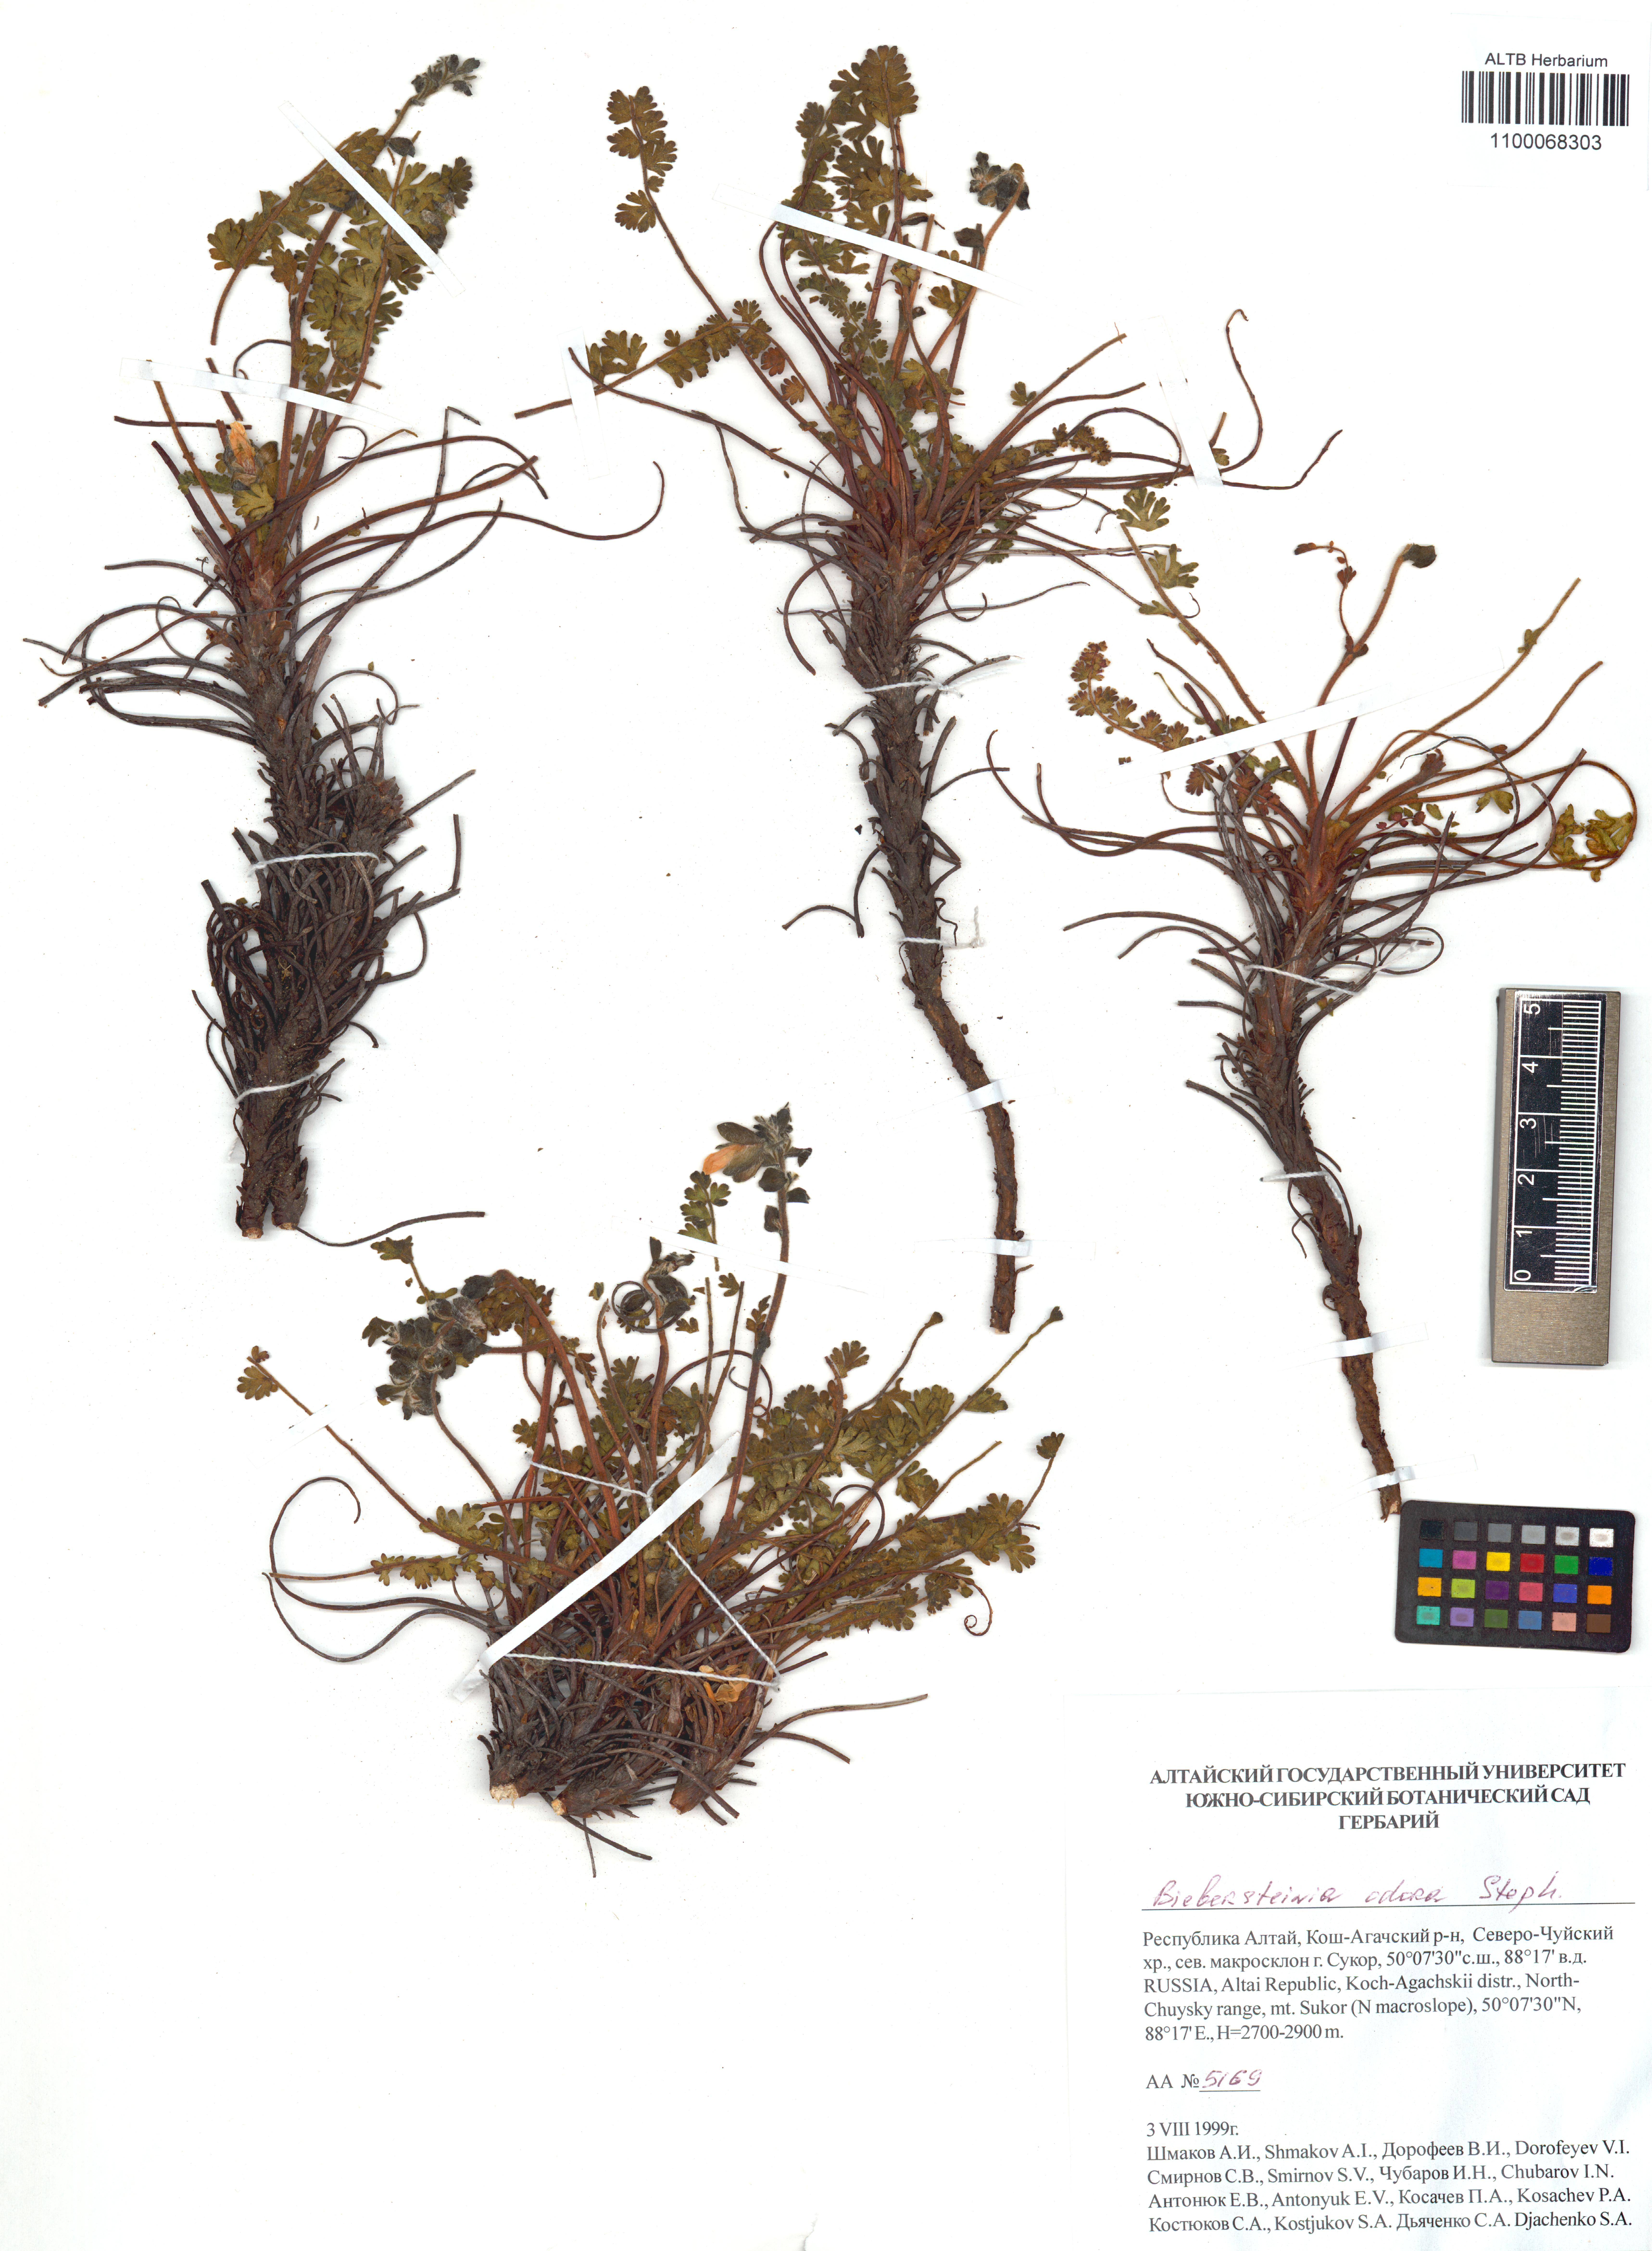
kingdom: Plantae
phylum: Tracheophyta
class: Magnoliopsida
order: Sapindales
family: Biebersteiniaceae
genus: Biebersteinia
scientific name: Biebersteinia odora
